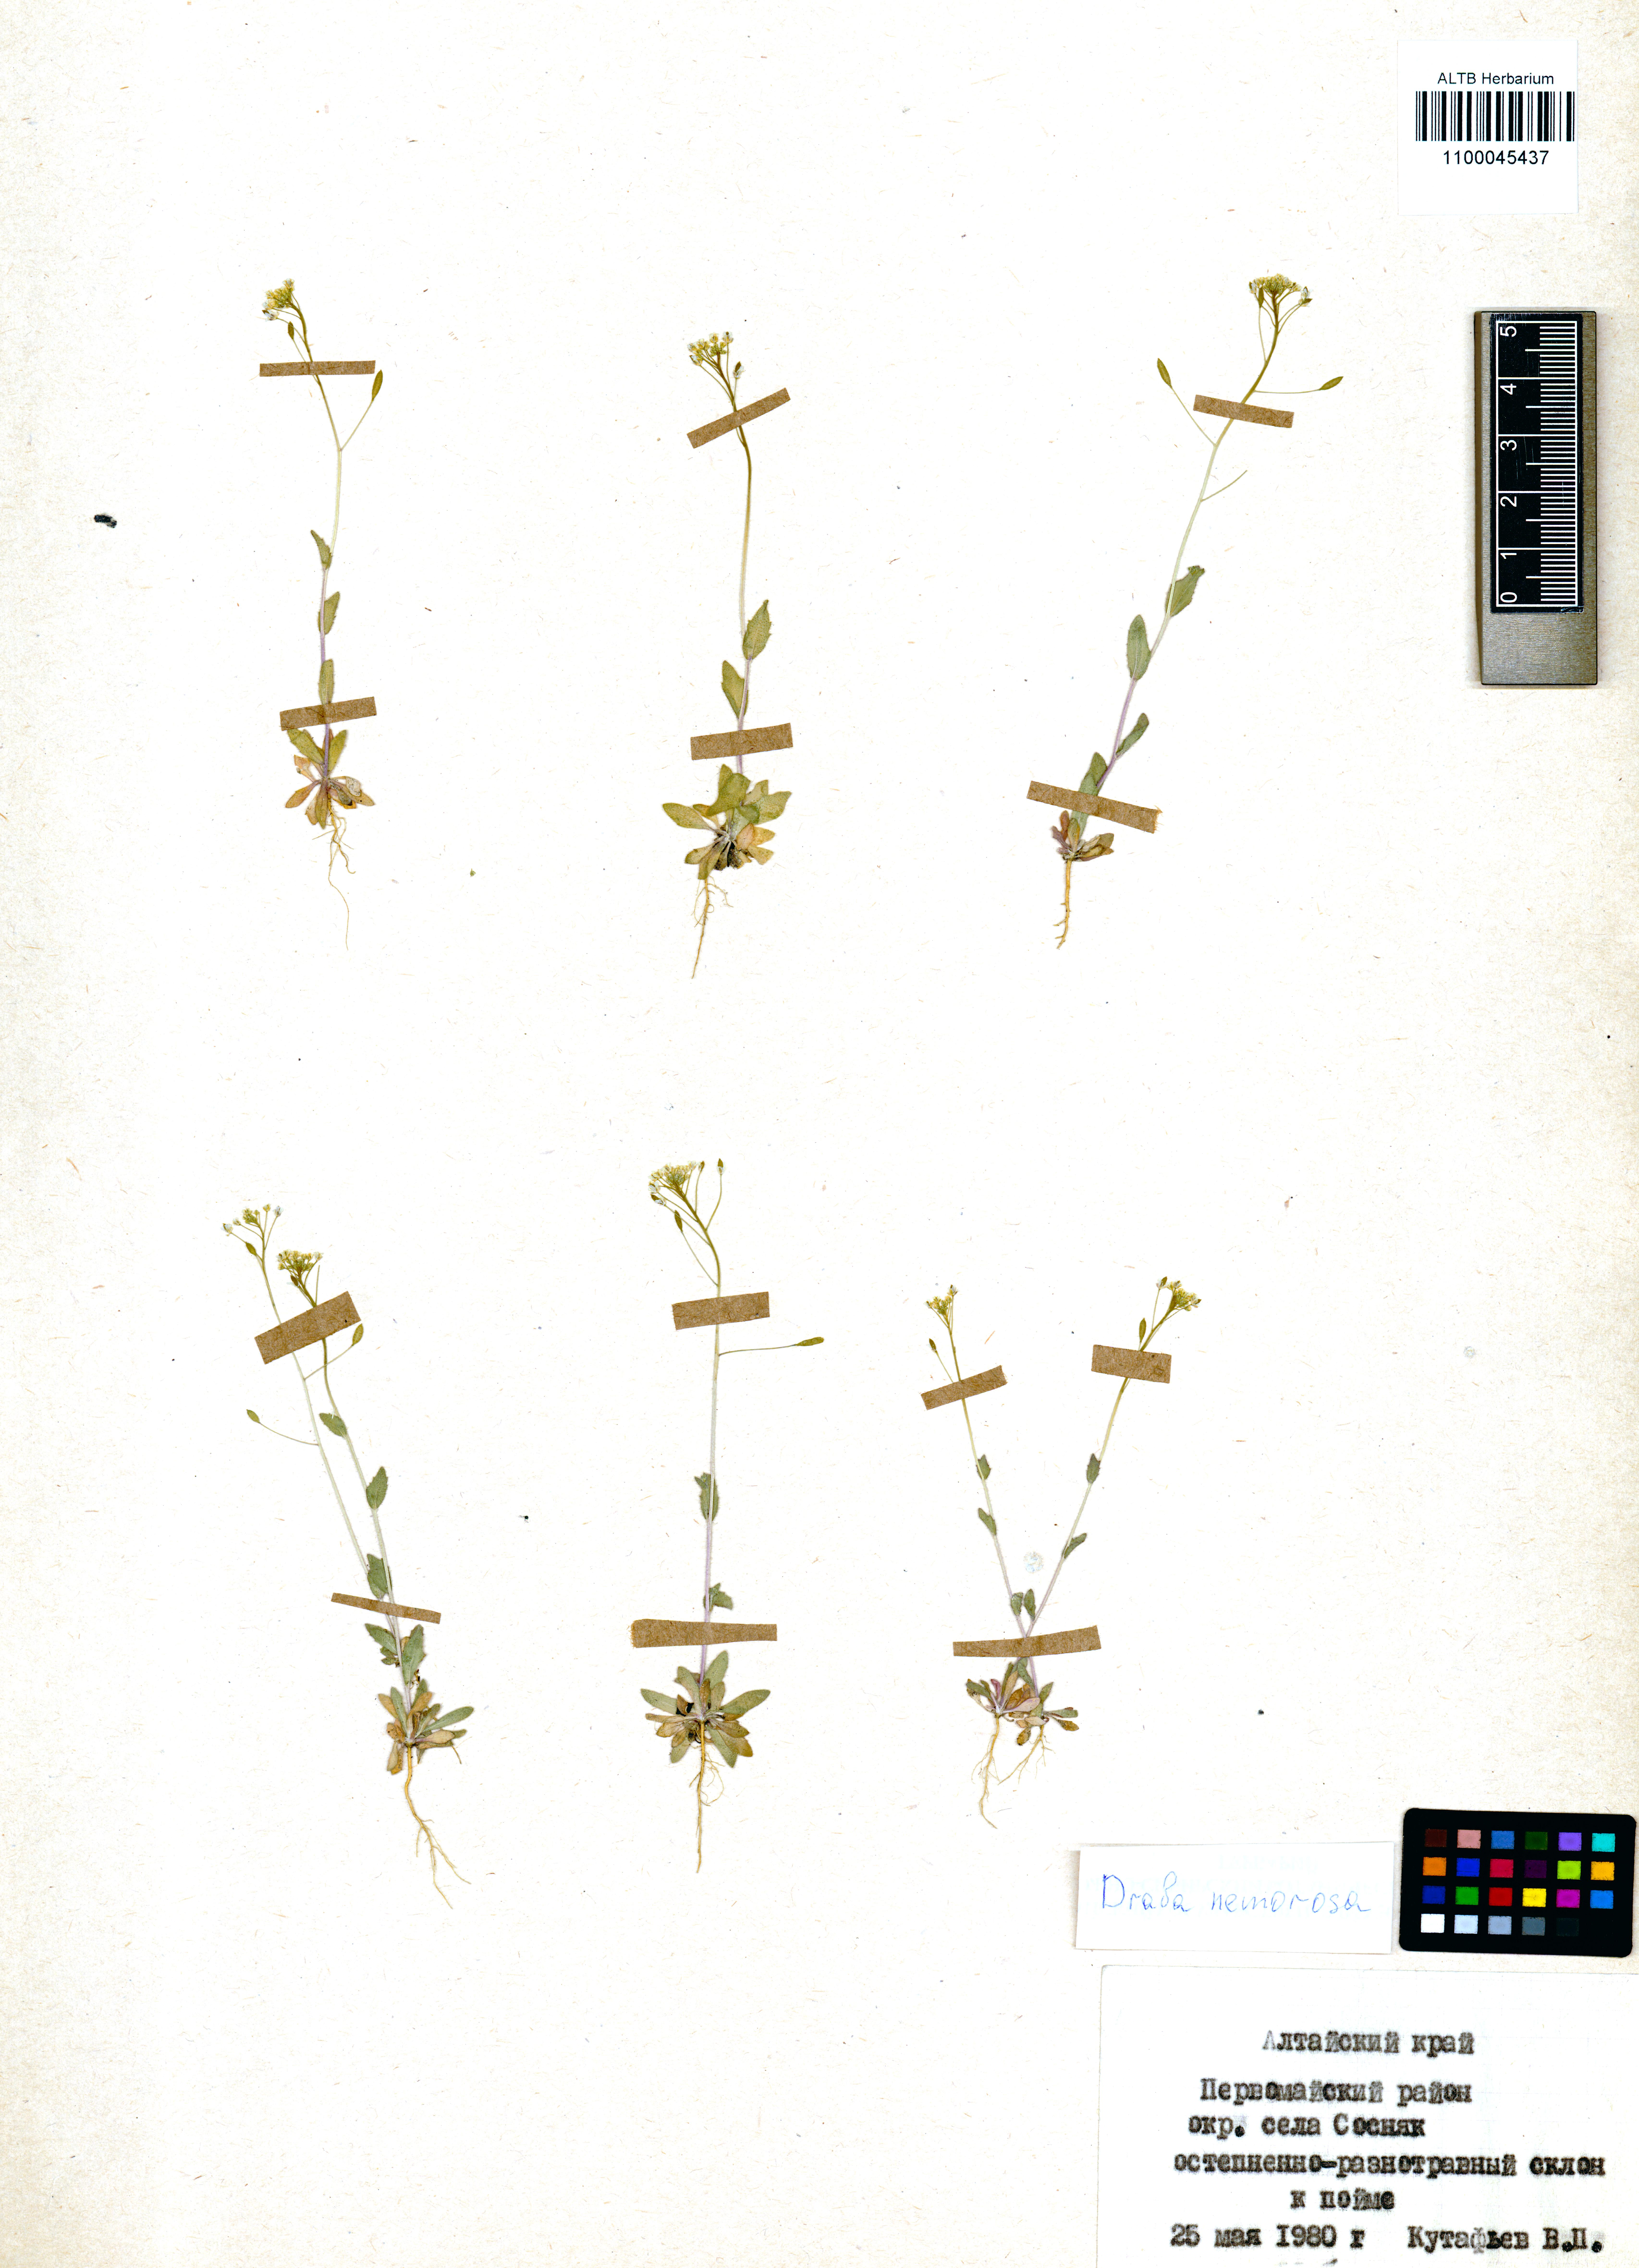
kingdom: Plantae
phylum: Tracheophyta
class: Magnoliopsida
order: Brassicales
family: Brassicaceae
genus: Draba
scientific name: Draba nemorosa
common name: Wood whitlow-grass
